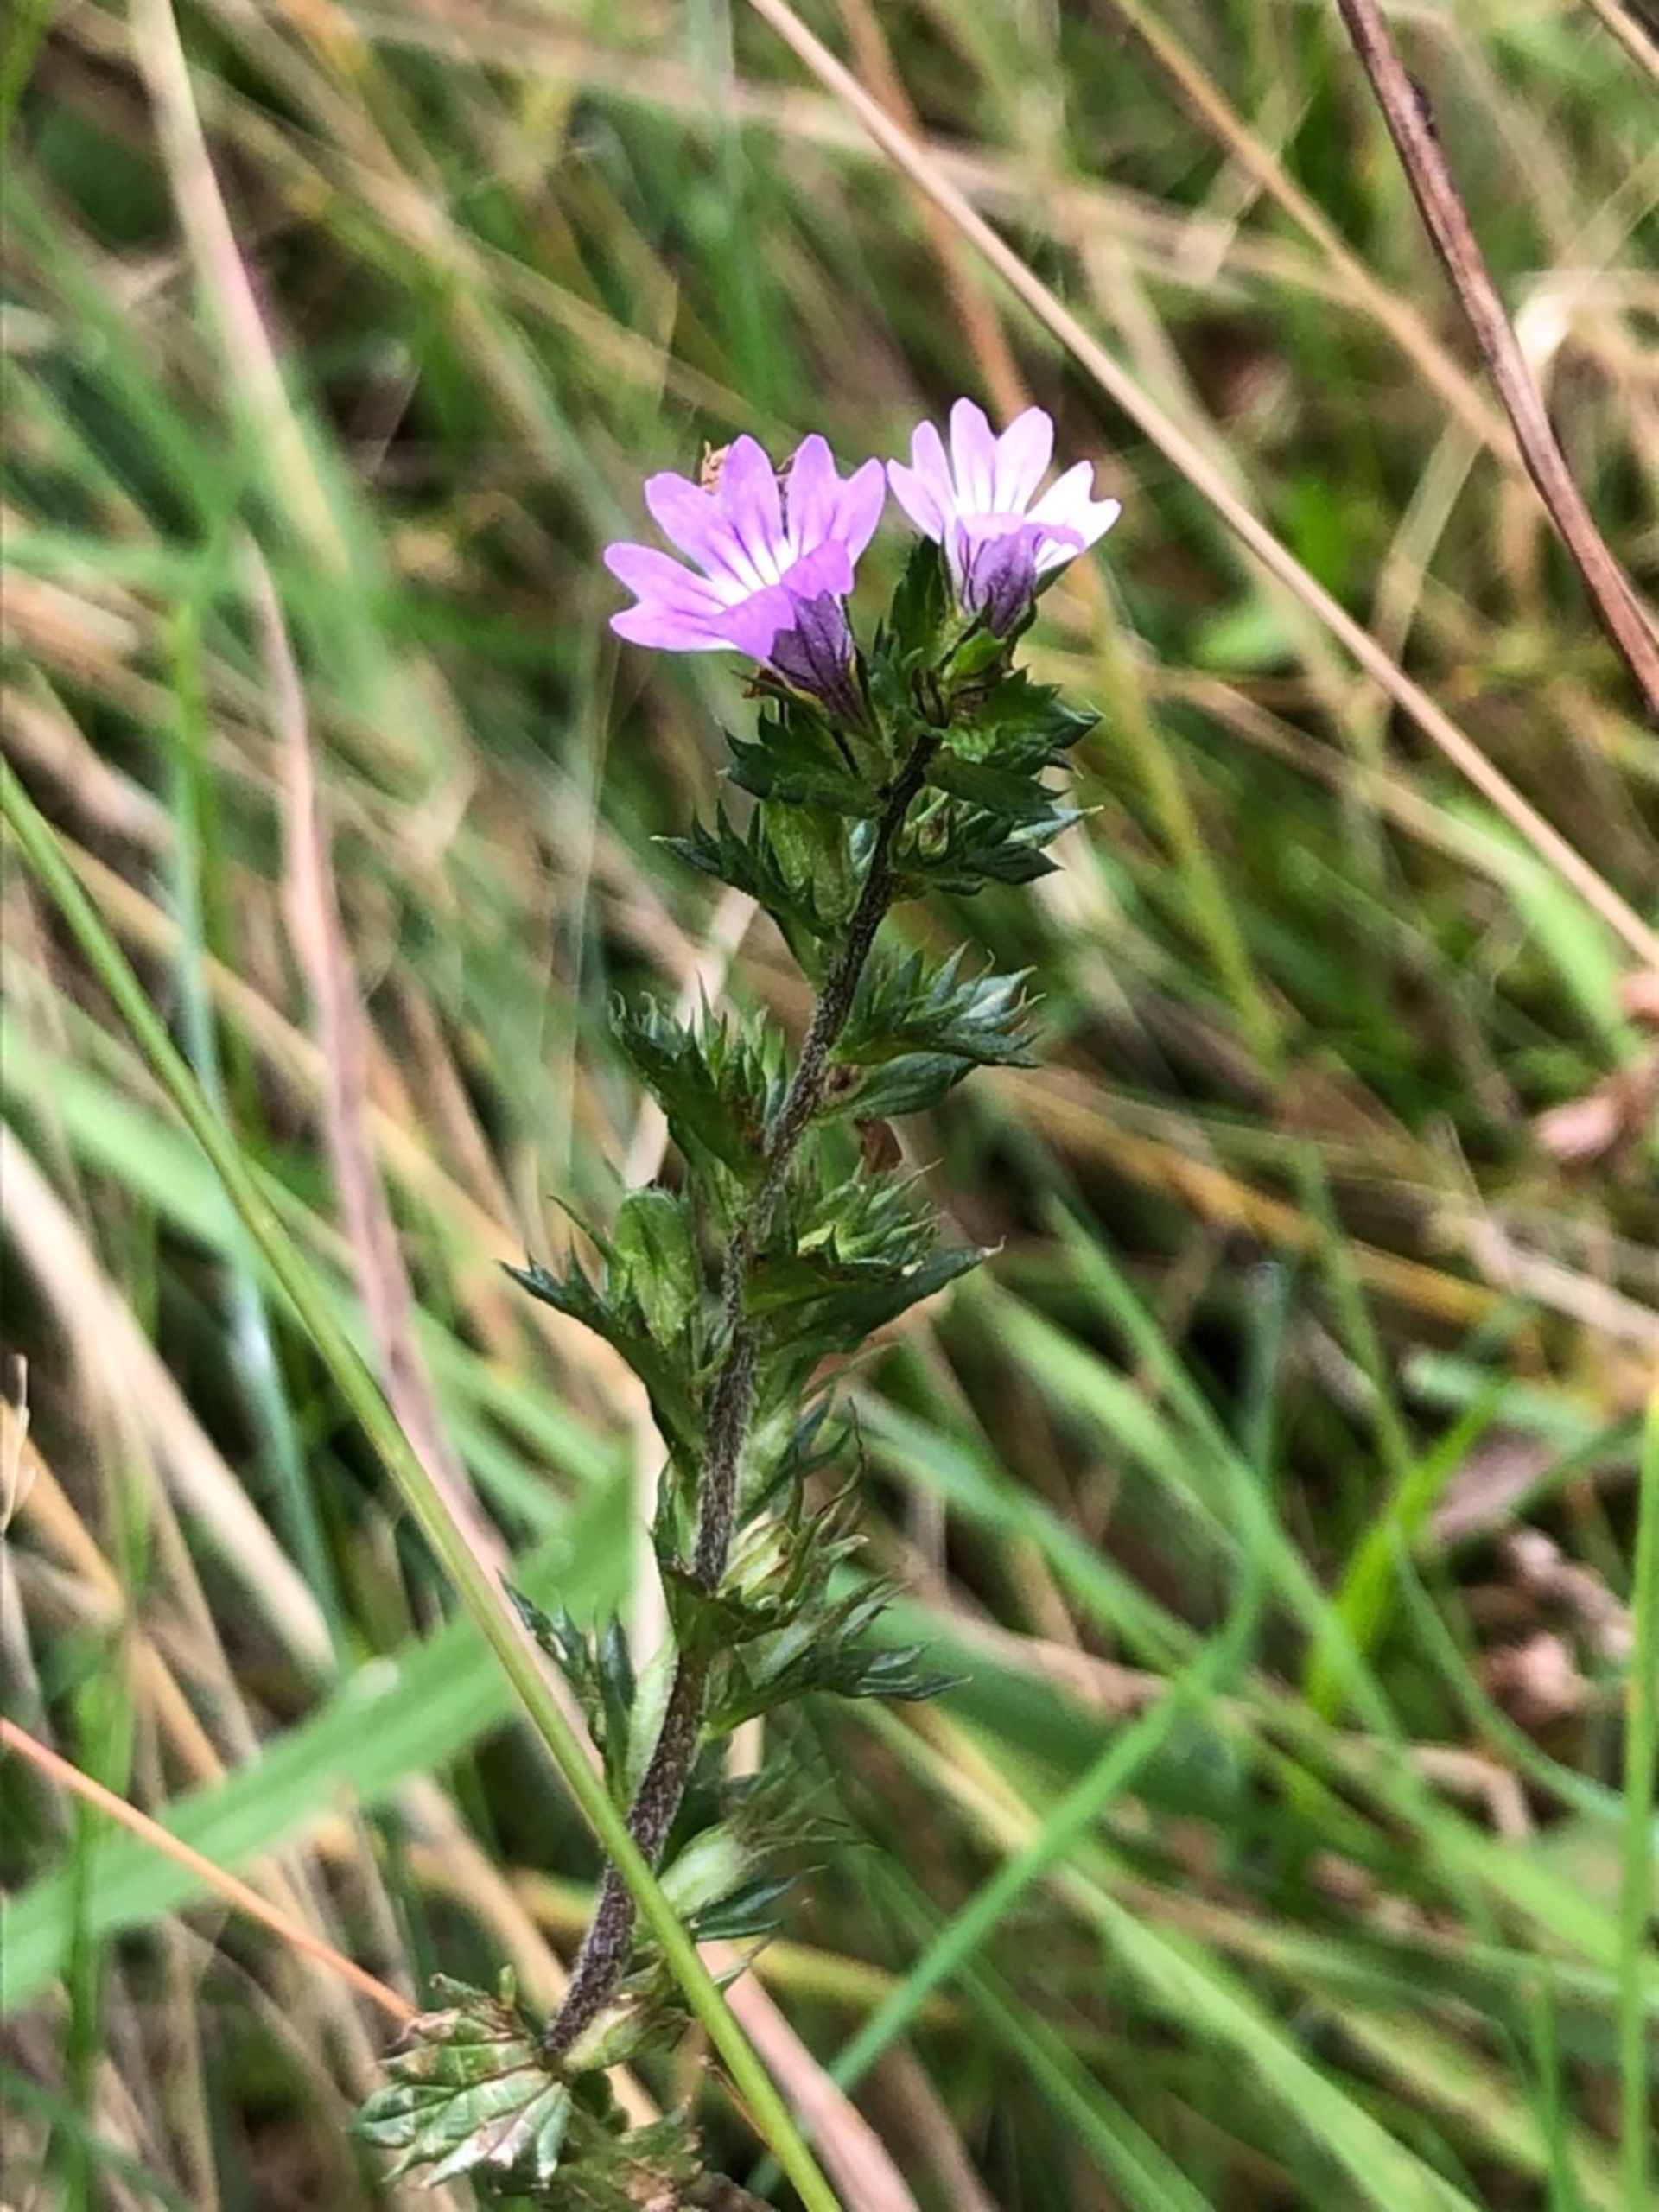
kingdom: Plantae
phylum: Tracheophyta
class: Magnoliopsida
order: Lamiales
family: Orobanchaceae
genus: Euphrasia
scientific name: Euphrasia stricta
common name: Spids øjentrøst
